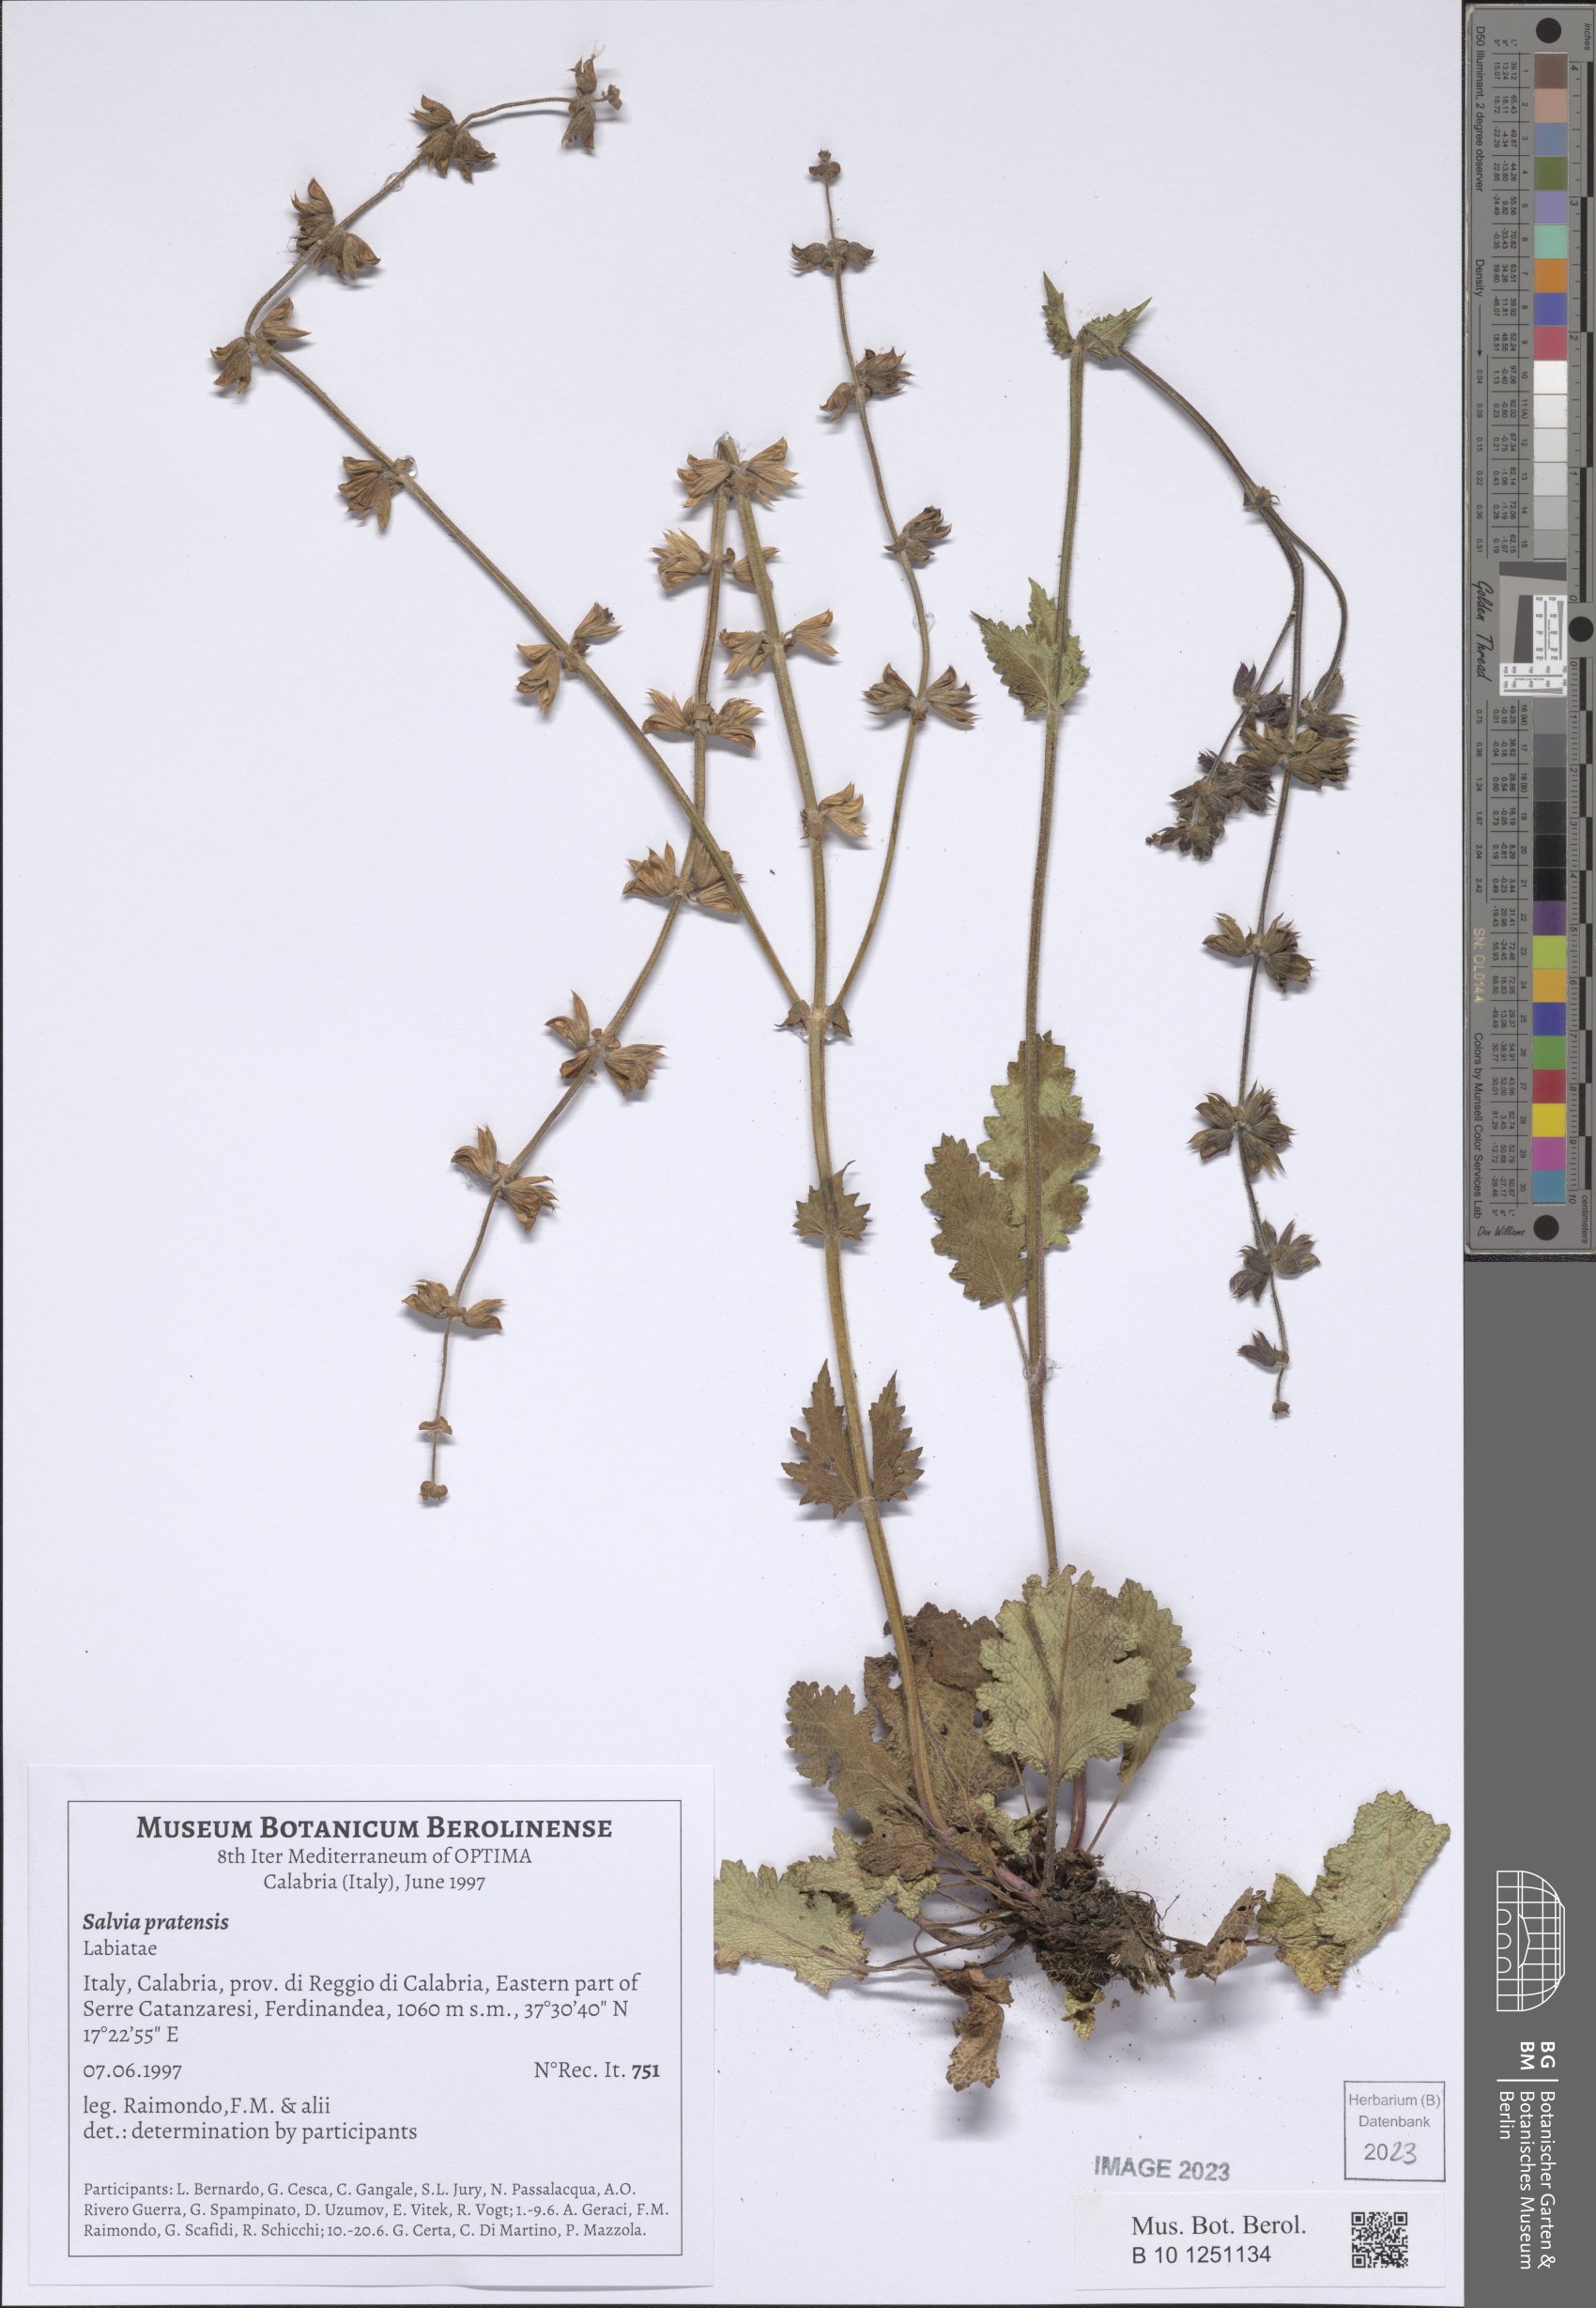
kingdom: Plantae
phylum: Tracheophyta
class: Magnoliopsida
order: Lamiales
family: Lamiaceae
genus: Salvia
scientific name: Salvia pratensis
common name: Meadow sage
